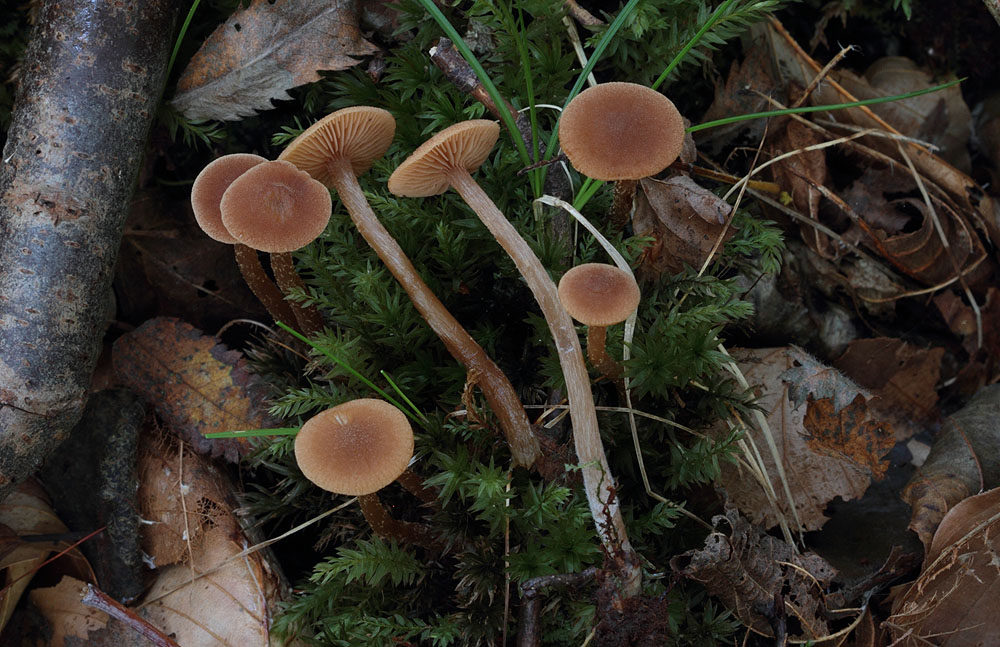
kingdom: Fungi
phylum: Basidiomycota
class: Agaricomycetes
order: Agaricales
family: Hymenogastraceae
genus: Naucoria
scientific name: Naucoria sphagneti
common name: lysrandet knaphat
